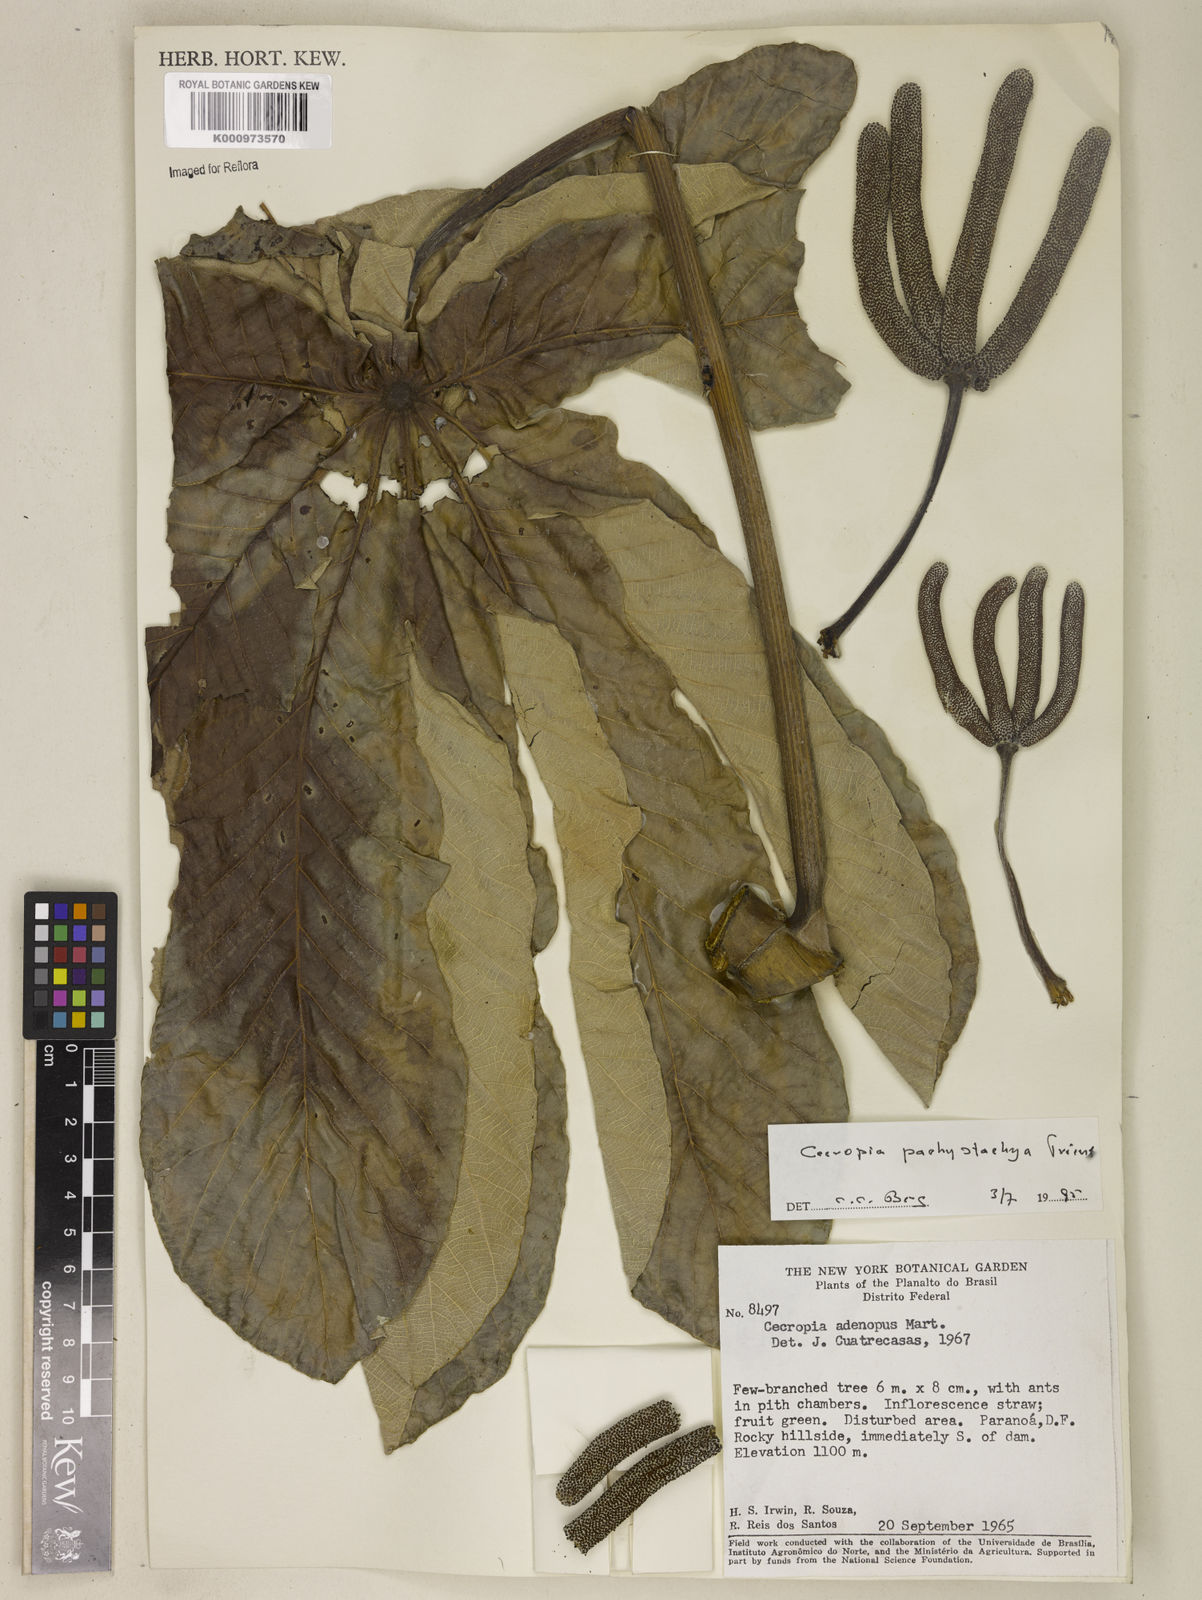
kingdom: Plantae
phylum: Tracheophyta
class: Magnoliopsida
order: Rosales
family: Urticaceae
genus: Cecropia
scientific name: Cecropia
